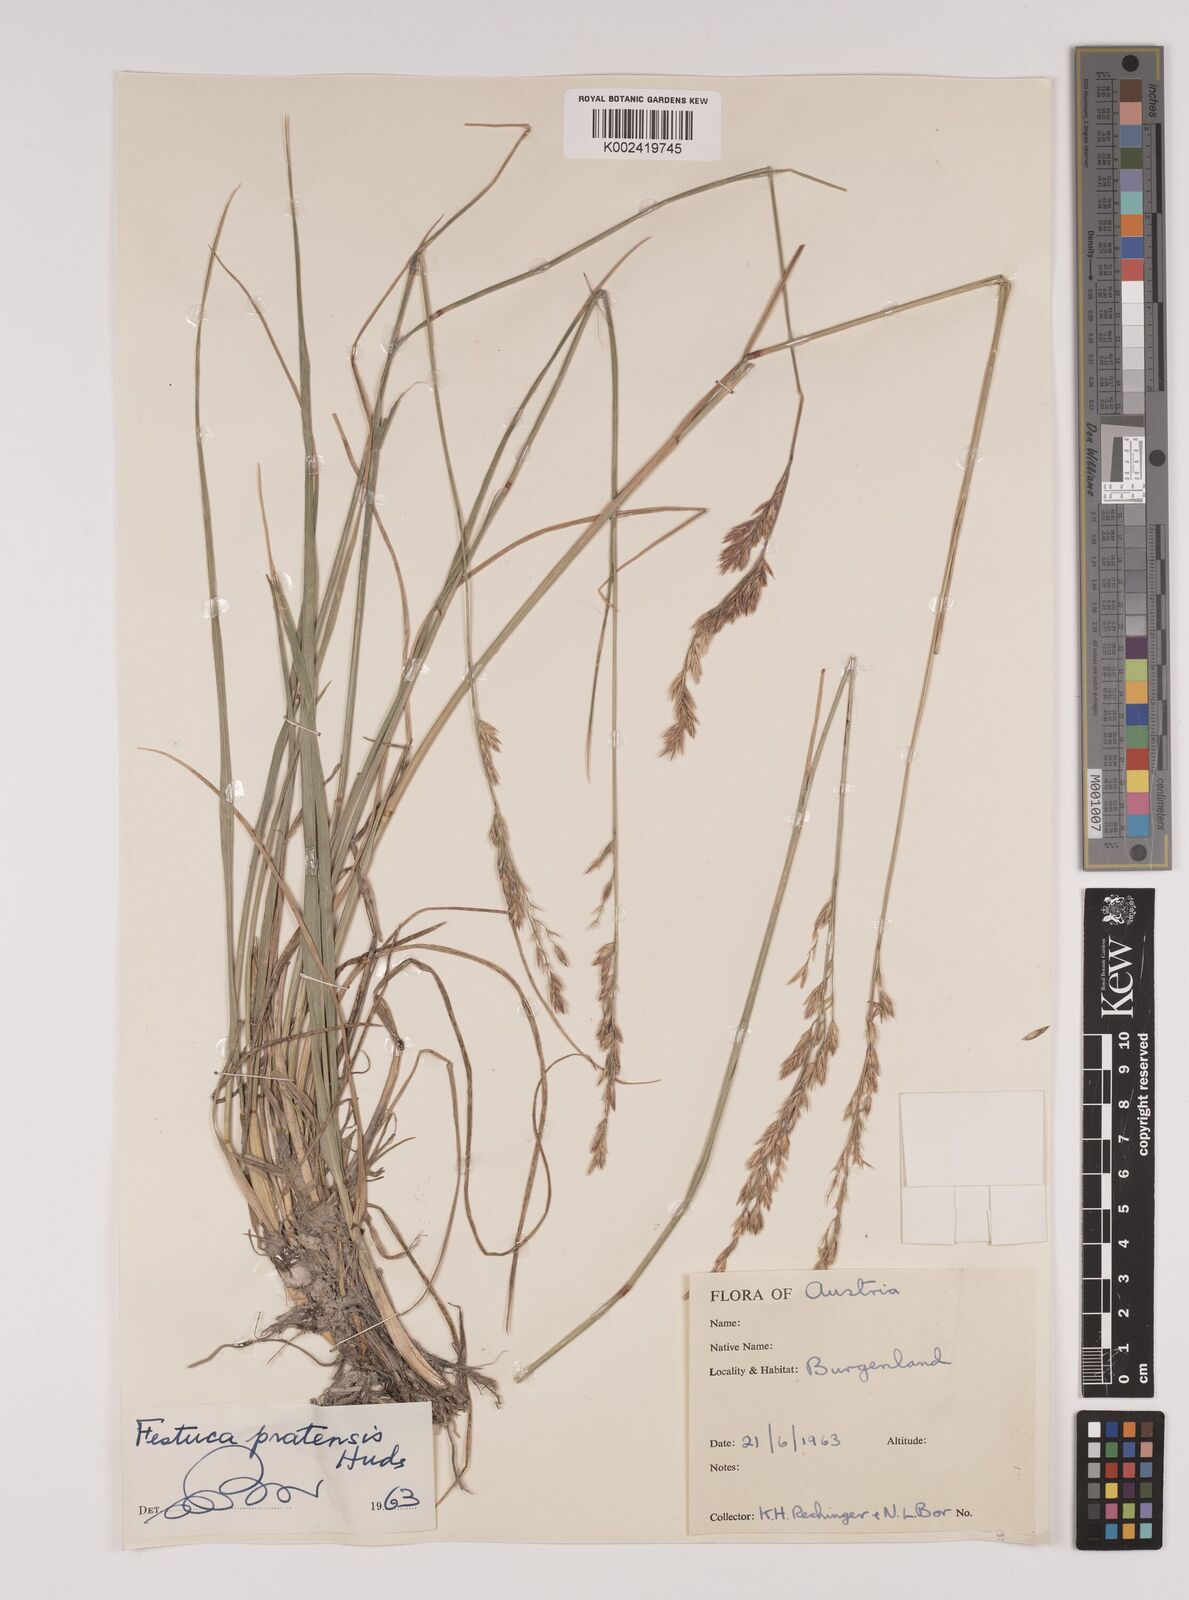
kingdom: Plantae
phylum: Tracheophyta
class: Liliopsida
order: Poales
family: Poaceae
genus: Lolium
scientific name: Lolium pratense
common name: Dover grass
